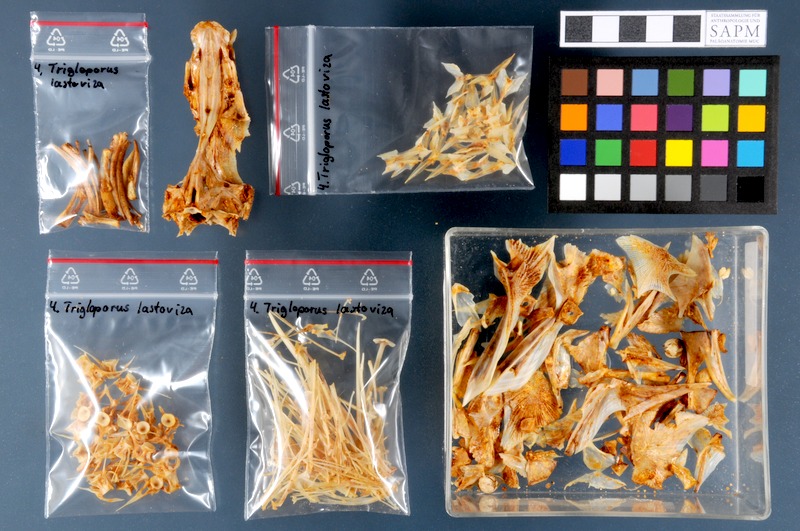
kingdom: Animalia
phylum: Chordata
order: Scorpaeniformes
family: Triglidae
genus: Chelidonichthys
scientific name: Chelidonichthys lastoviza
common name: Streaked gurnard
